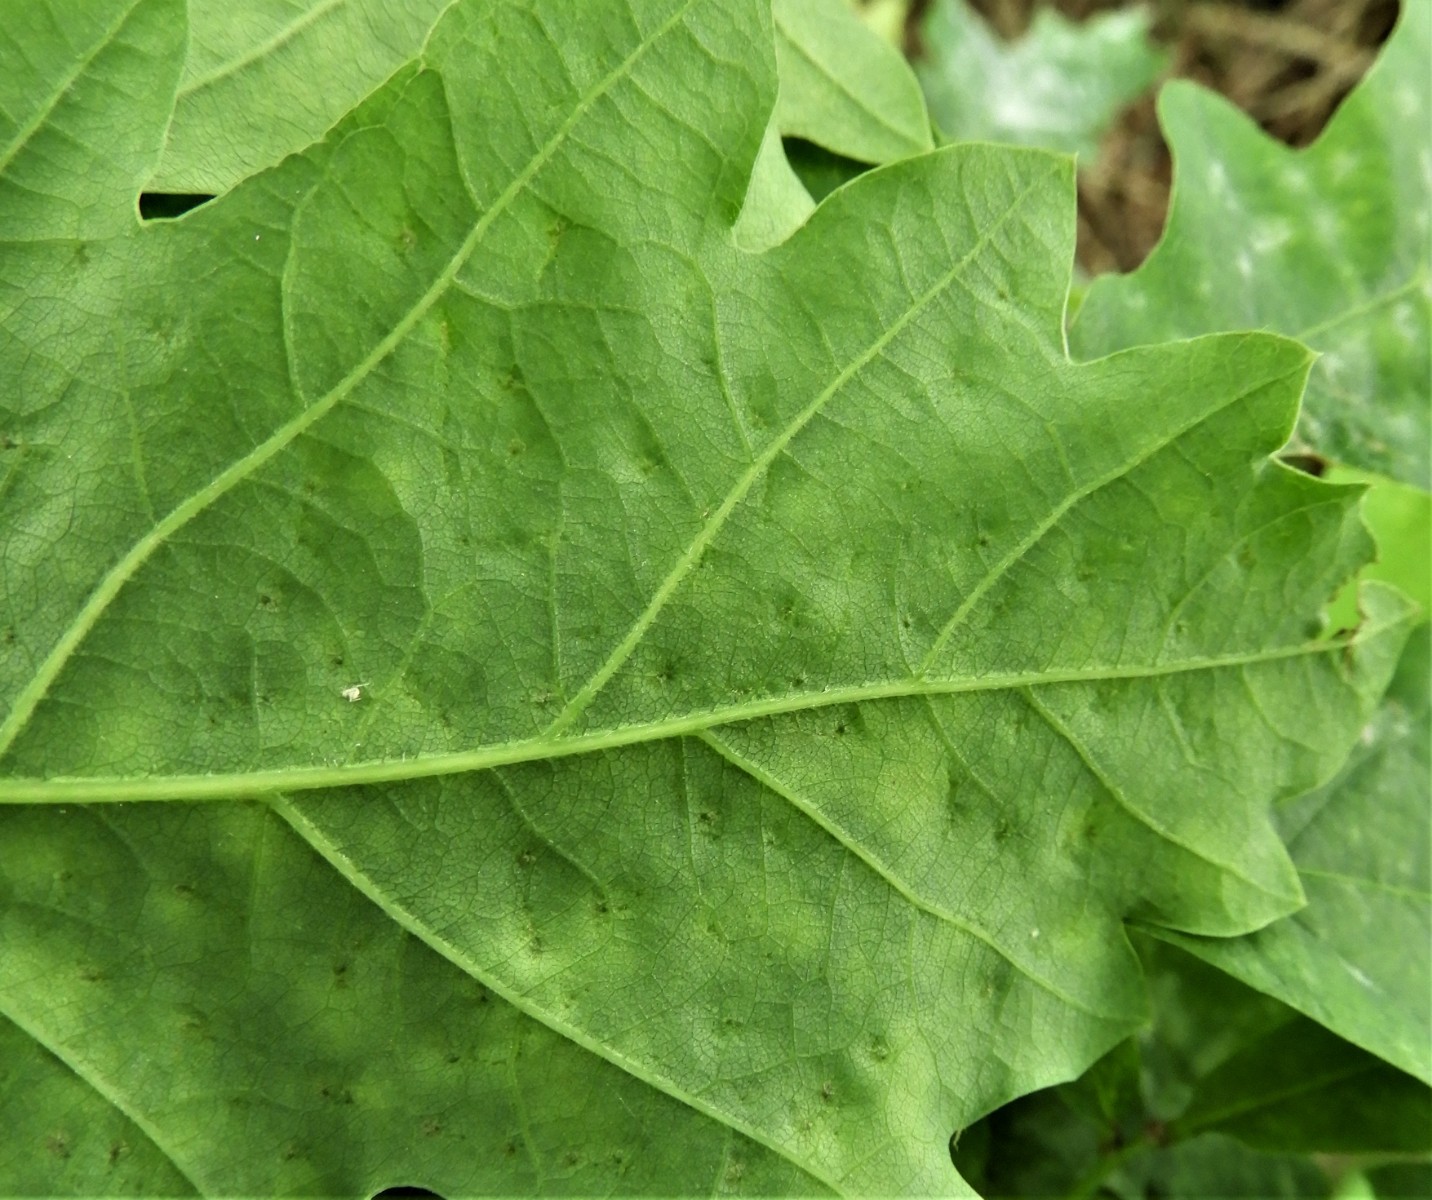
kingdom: Fungi
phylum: Ascomycota
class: Leotiomycetes
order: Helotiales
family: Erysiphaceae
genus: Erysiphe
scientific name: Erysiphe alphitoides
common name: ege-meldug
